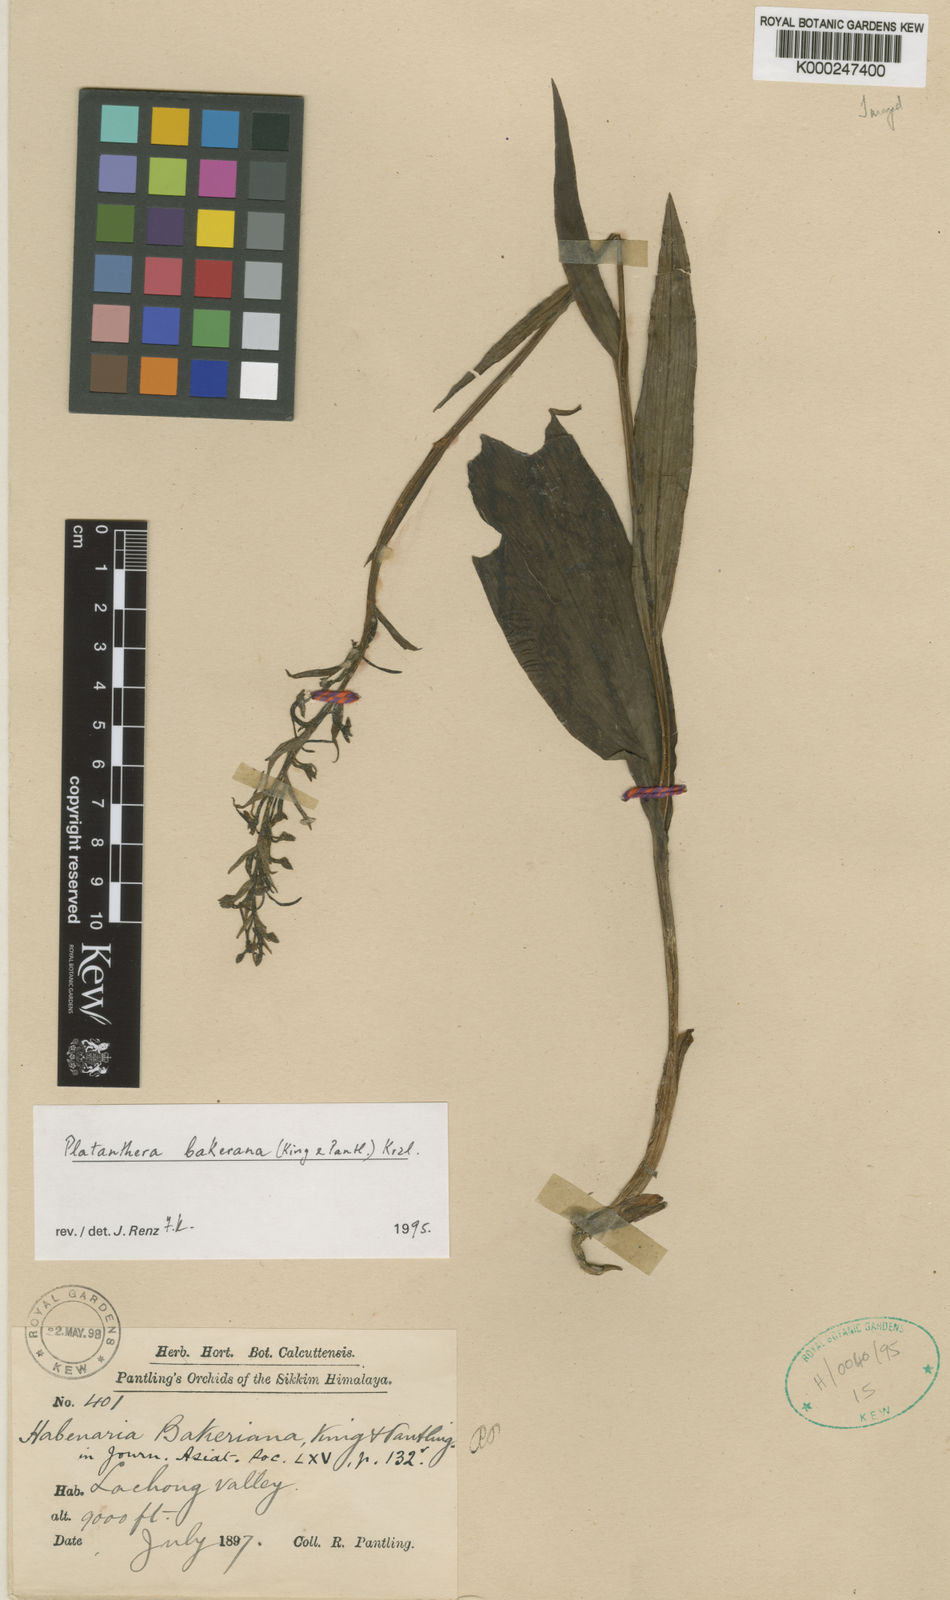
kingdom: Plantae
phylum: Tracheophyta
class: Liliopsida
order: Asparagales
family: Orchidaceae
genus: Platanthera
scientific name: Platanthera bakeriana
